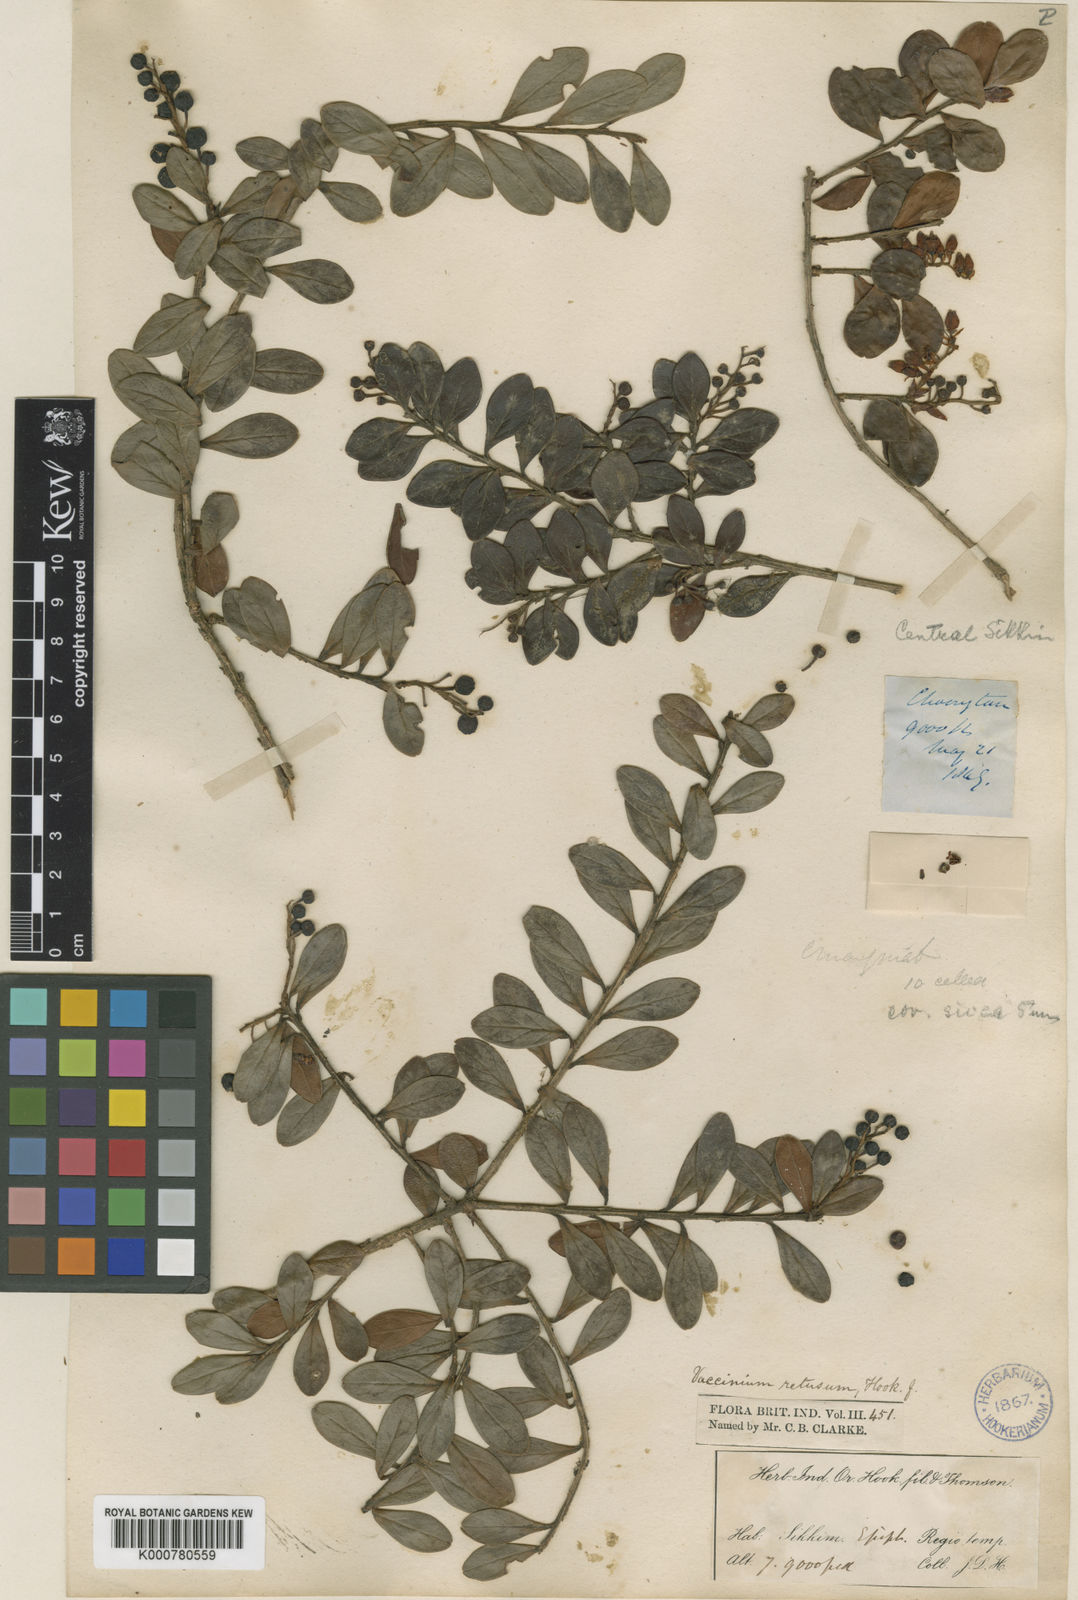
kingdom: Plantae
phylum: Tracheophyta
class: Magnoliopsida
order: Ericales
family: Ericaceae
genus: Vaccinium
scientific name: Vaccinium retusum
